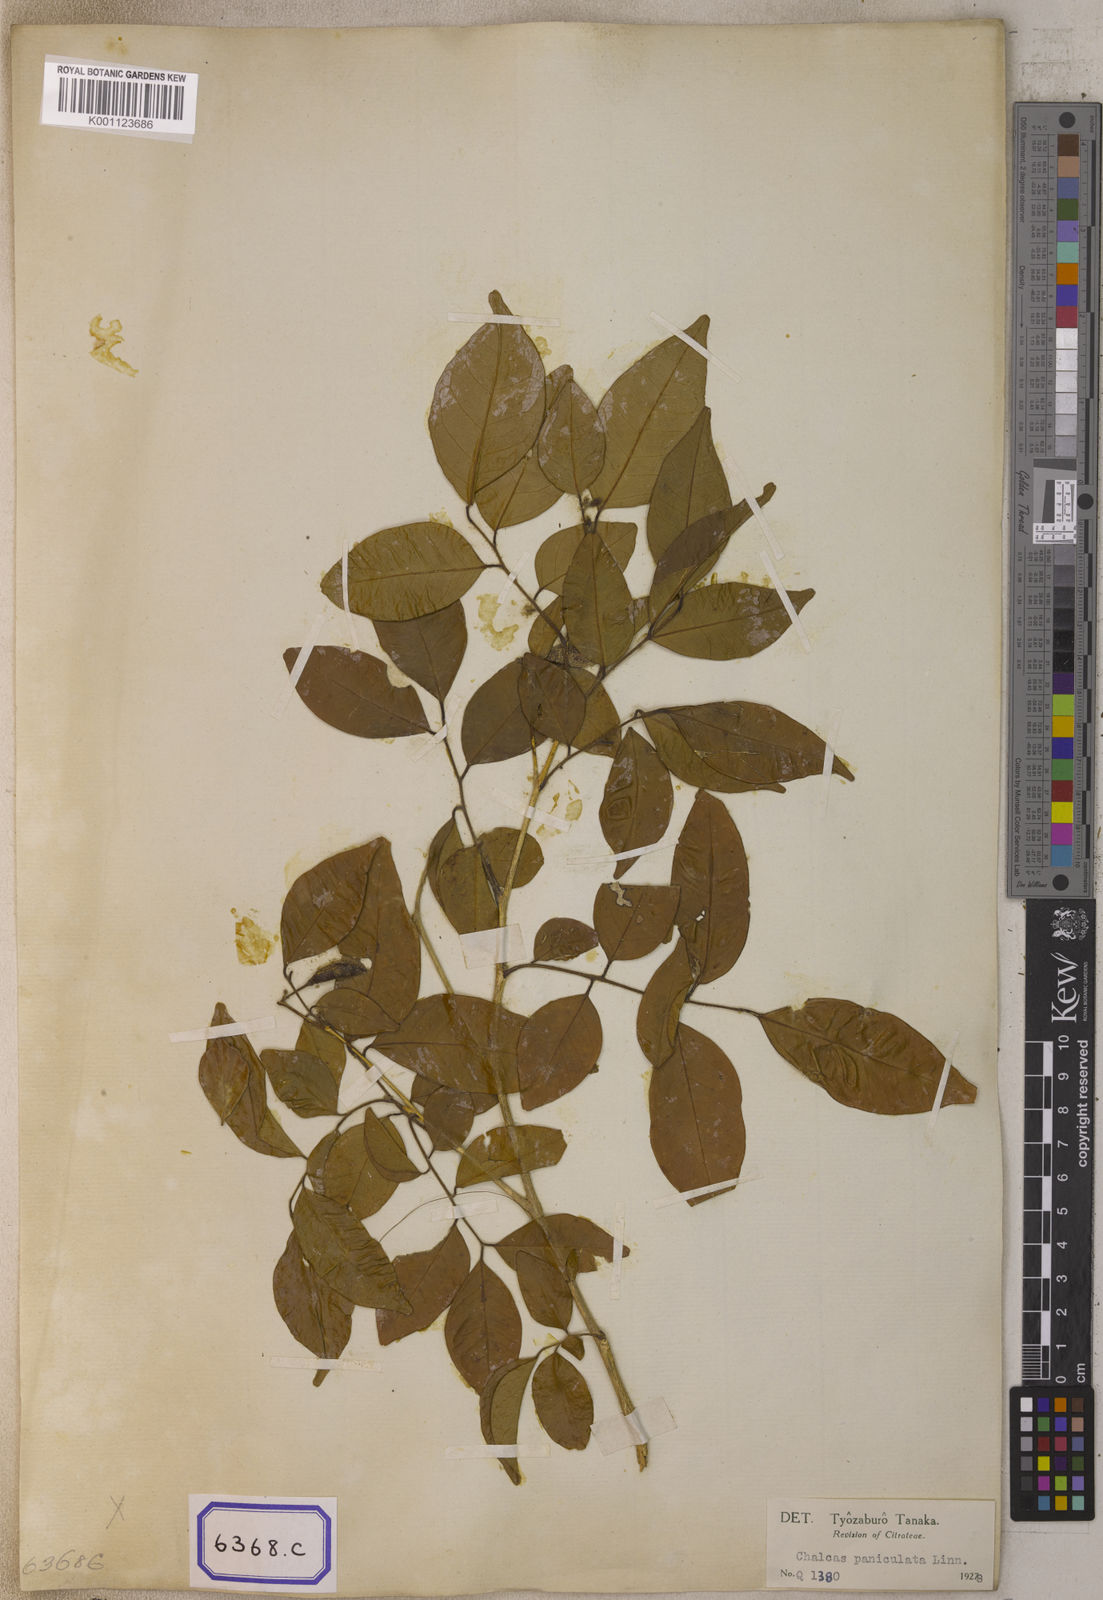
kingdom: Plantae
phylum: Tracheophyta
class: Magnoliopsida
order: Sapindales
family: Rutaceae
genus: Murraya
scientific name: Murraya paniculata
